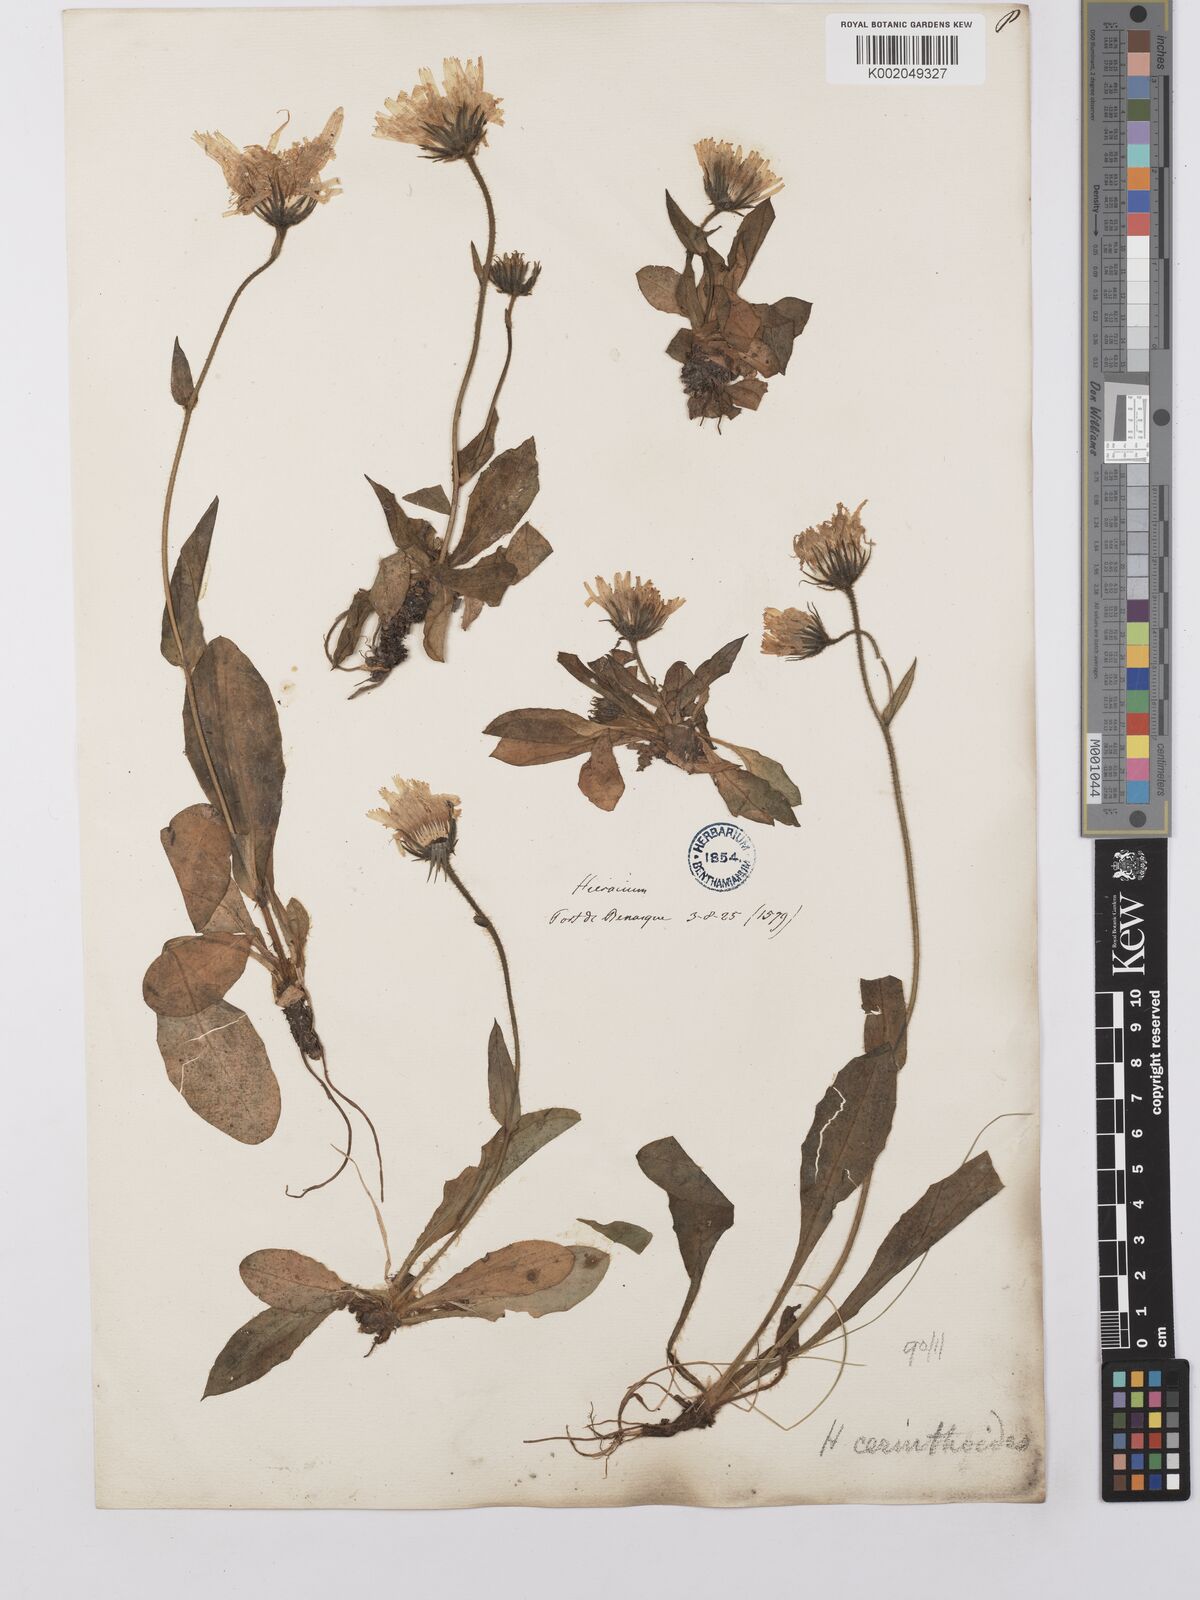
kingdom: Plantae
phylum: Tracheophyta
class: Magnoliopsida
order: Asterales
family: Asteraceae
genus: Hieracium
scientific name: Hieracium cerinthoides
